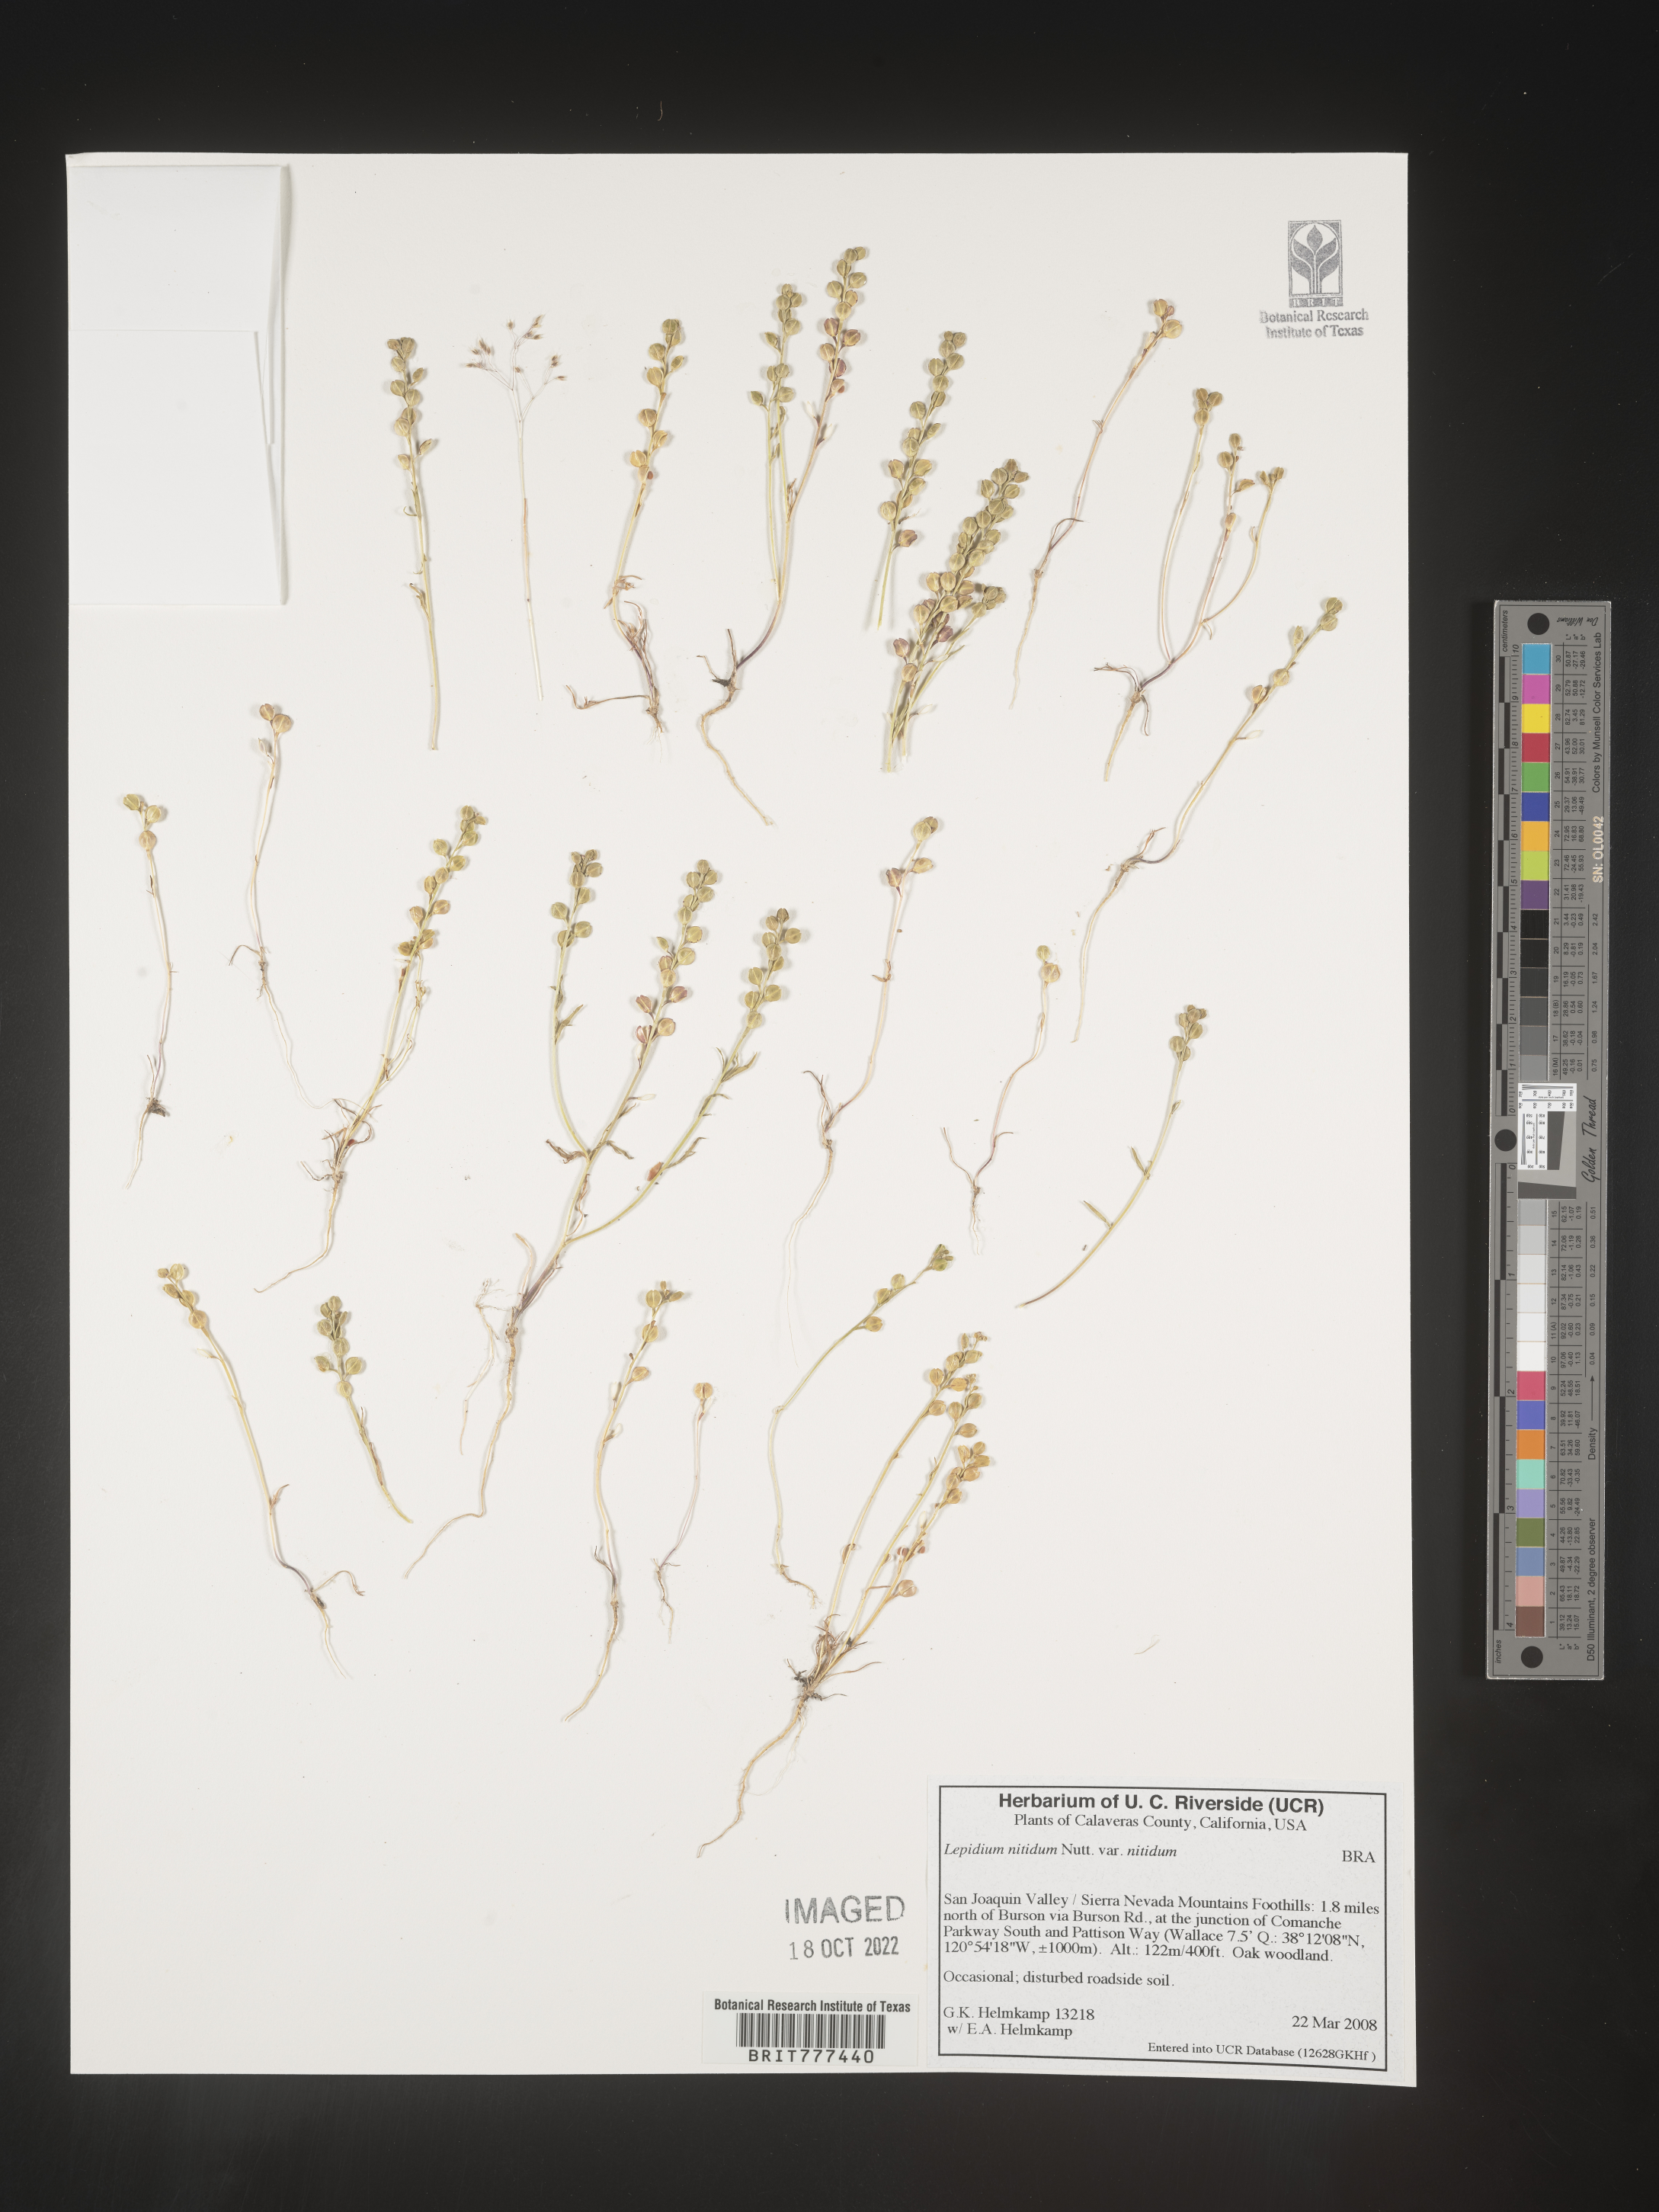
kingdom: Plantae
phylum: Tracheophyta
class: Magnoliopsida
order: Brassicales
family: Brassicaceae
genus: Lepidium
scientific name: Lepidium nitidum
